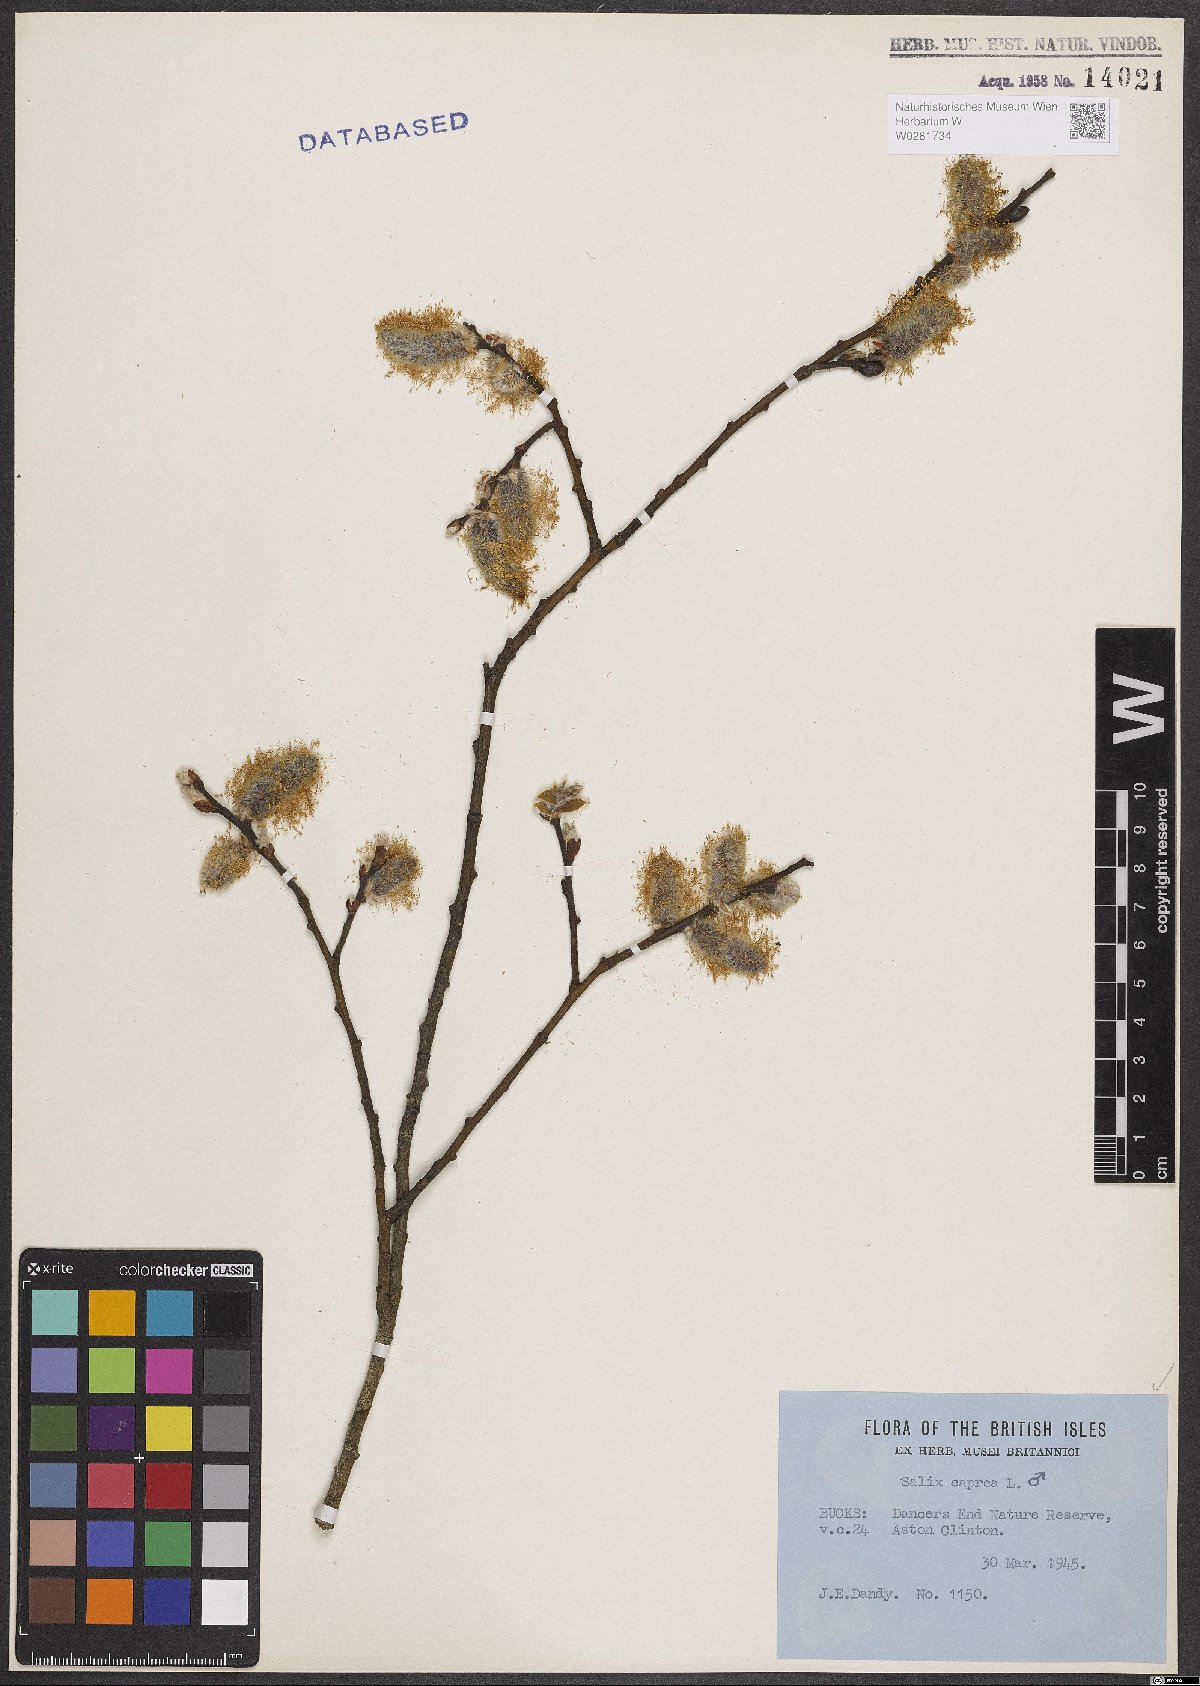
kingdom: Plantae
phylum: Tracheophyta
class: Magnoliopsida
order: Malpighiales
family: Salicaceae
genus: Salix
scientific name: Salix caprea
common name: Goat willow
